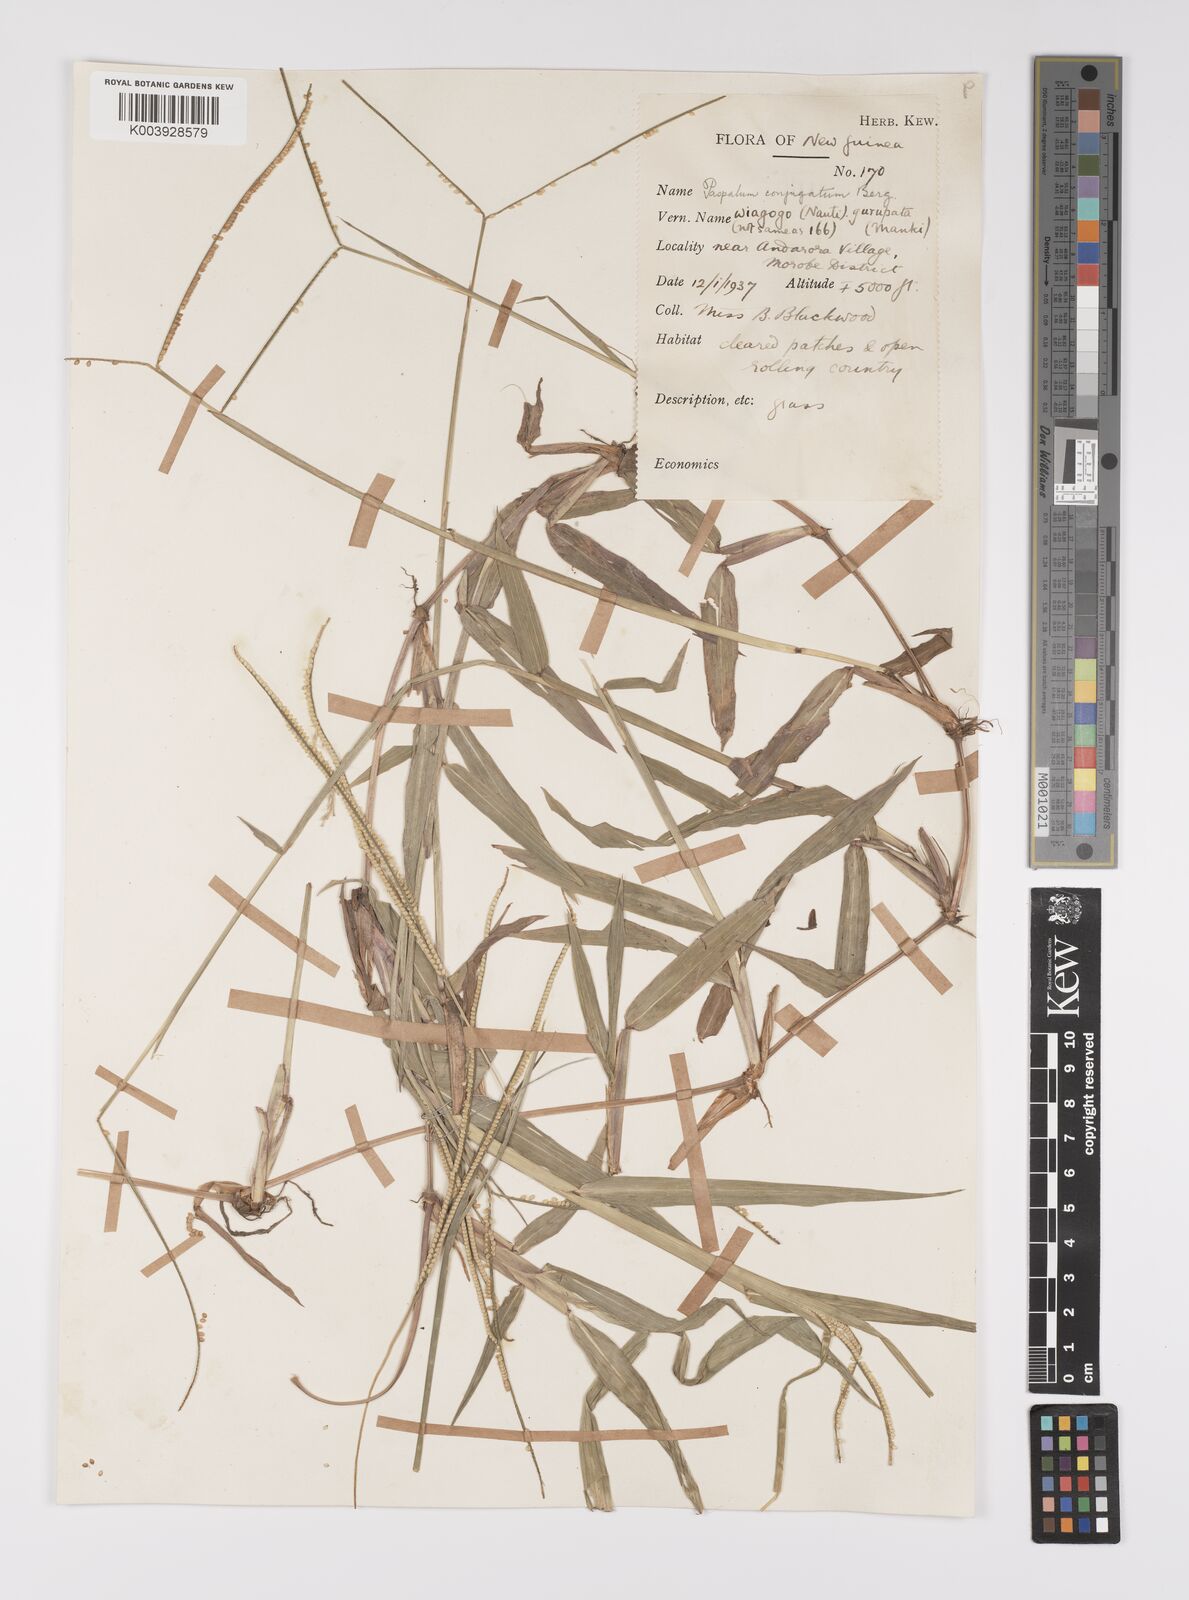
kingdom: Plantae
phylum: Tracheophyta
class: Liliopsida
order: Poales
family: Poaceae
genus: Paspalum
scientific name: Paspalum conjugatum
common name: Hilograss
